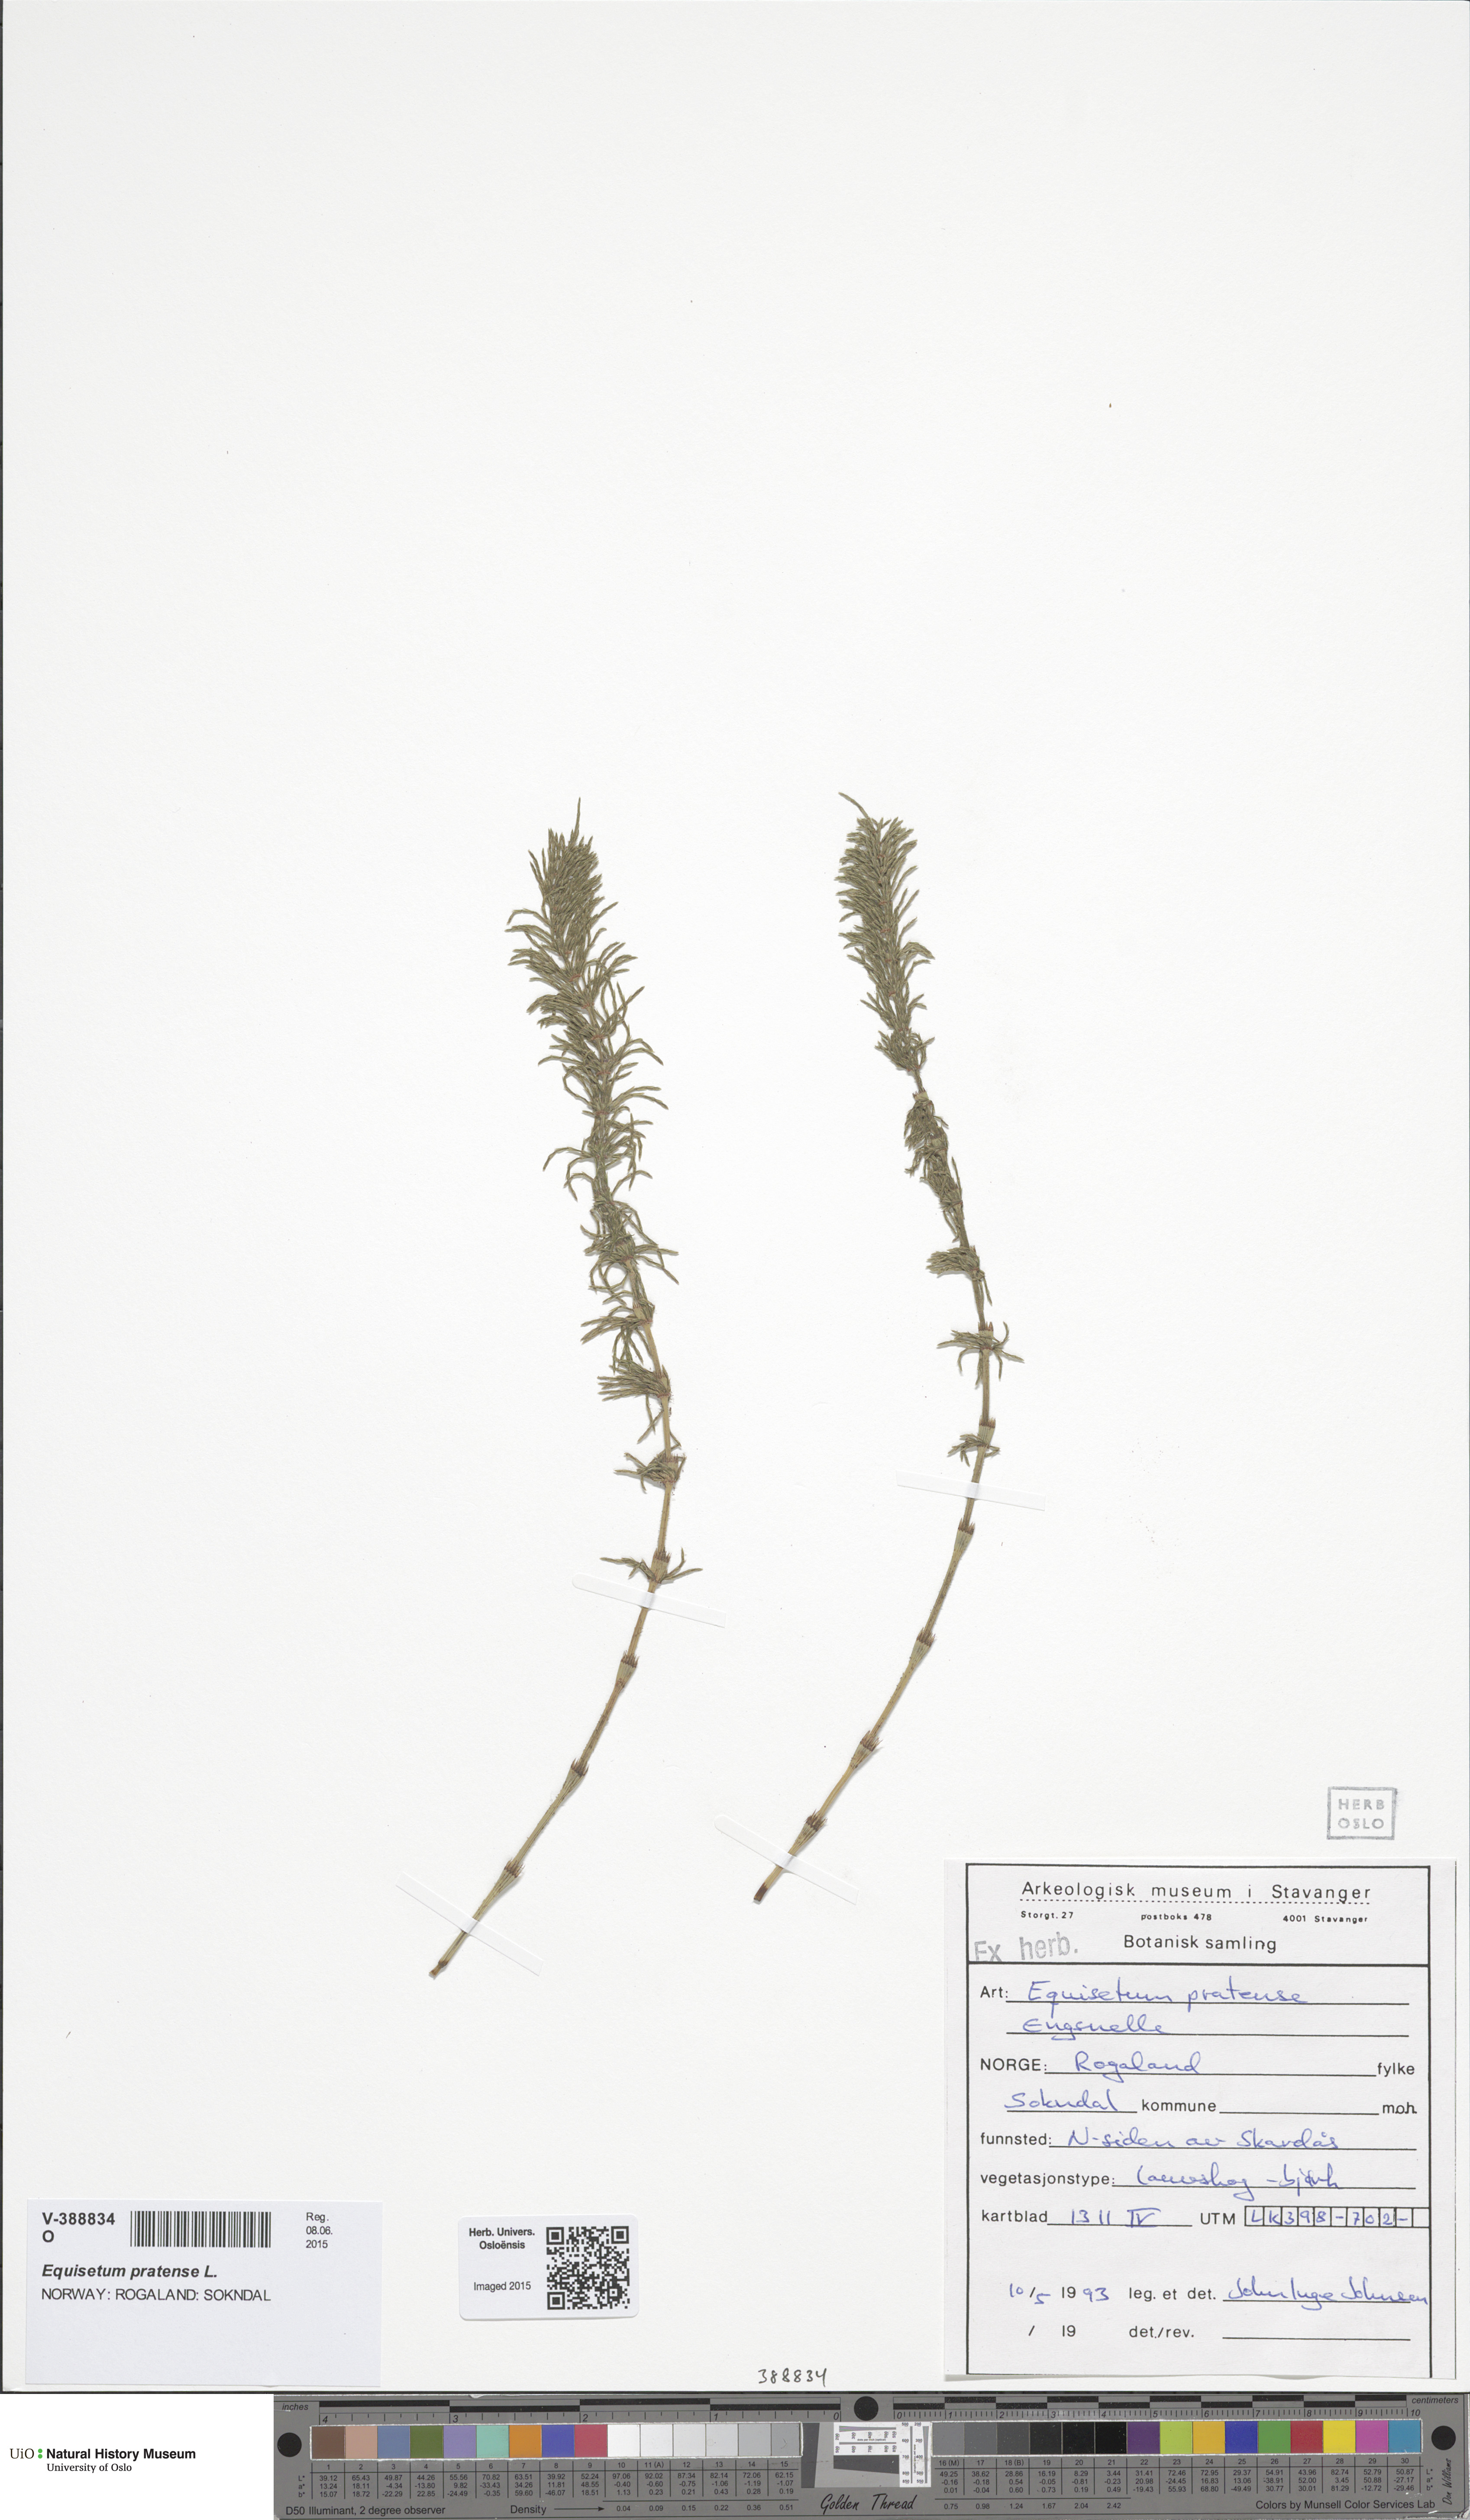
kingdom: Plantae
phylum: Tracheophyta
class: Polypodiopsida
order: Equisetales
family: Equisetaceae
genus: Equisetum
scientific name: Equisetum pratense
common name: Meadow horsetail
